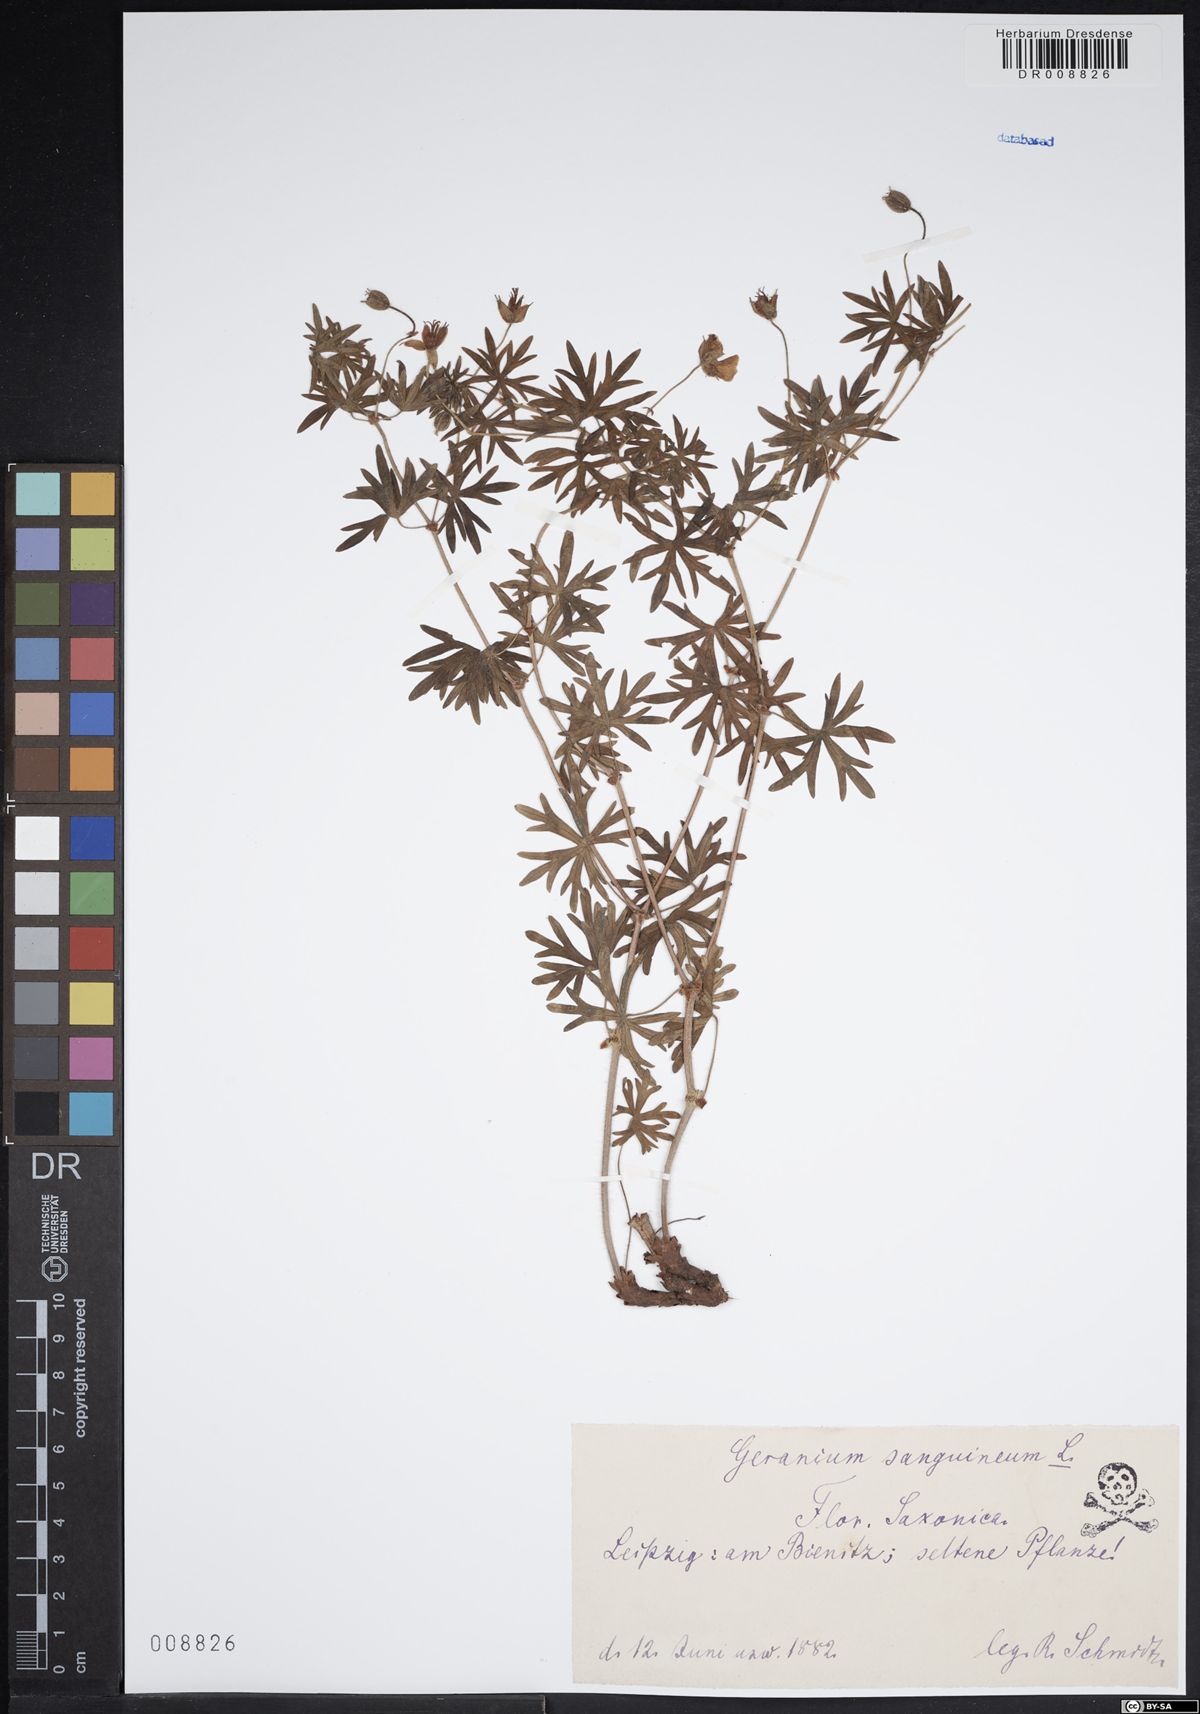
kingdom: Plantae
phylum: Tracheophyta
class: Magnoliopsida
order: Geraniales
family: Geraniaceae
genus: Geranium
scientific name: Geranium sanguineum
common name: Bloody crane's-bill
